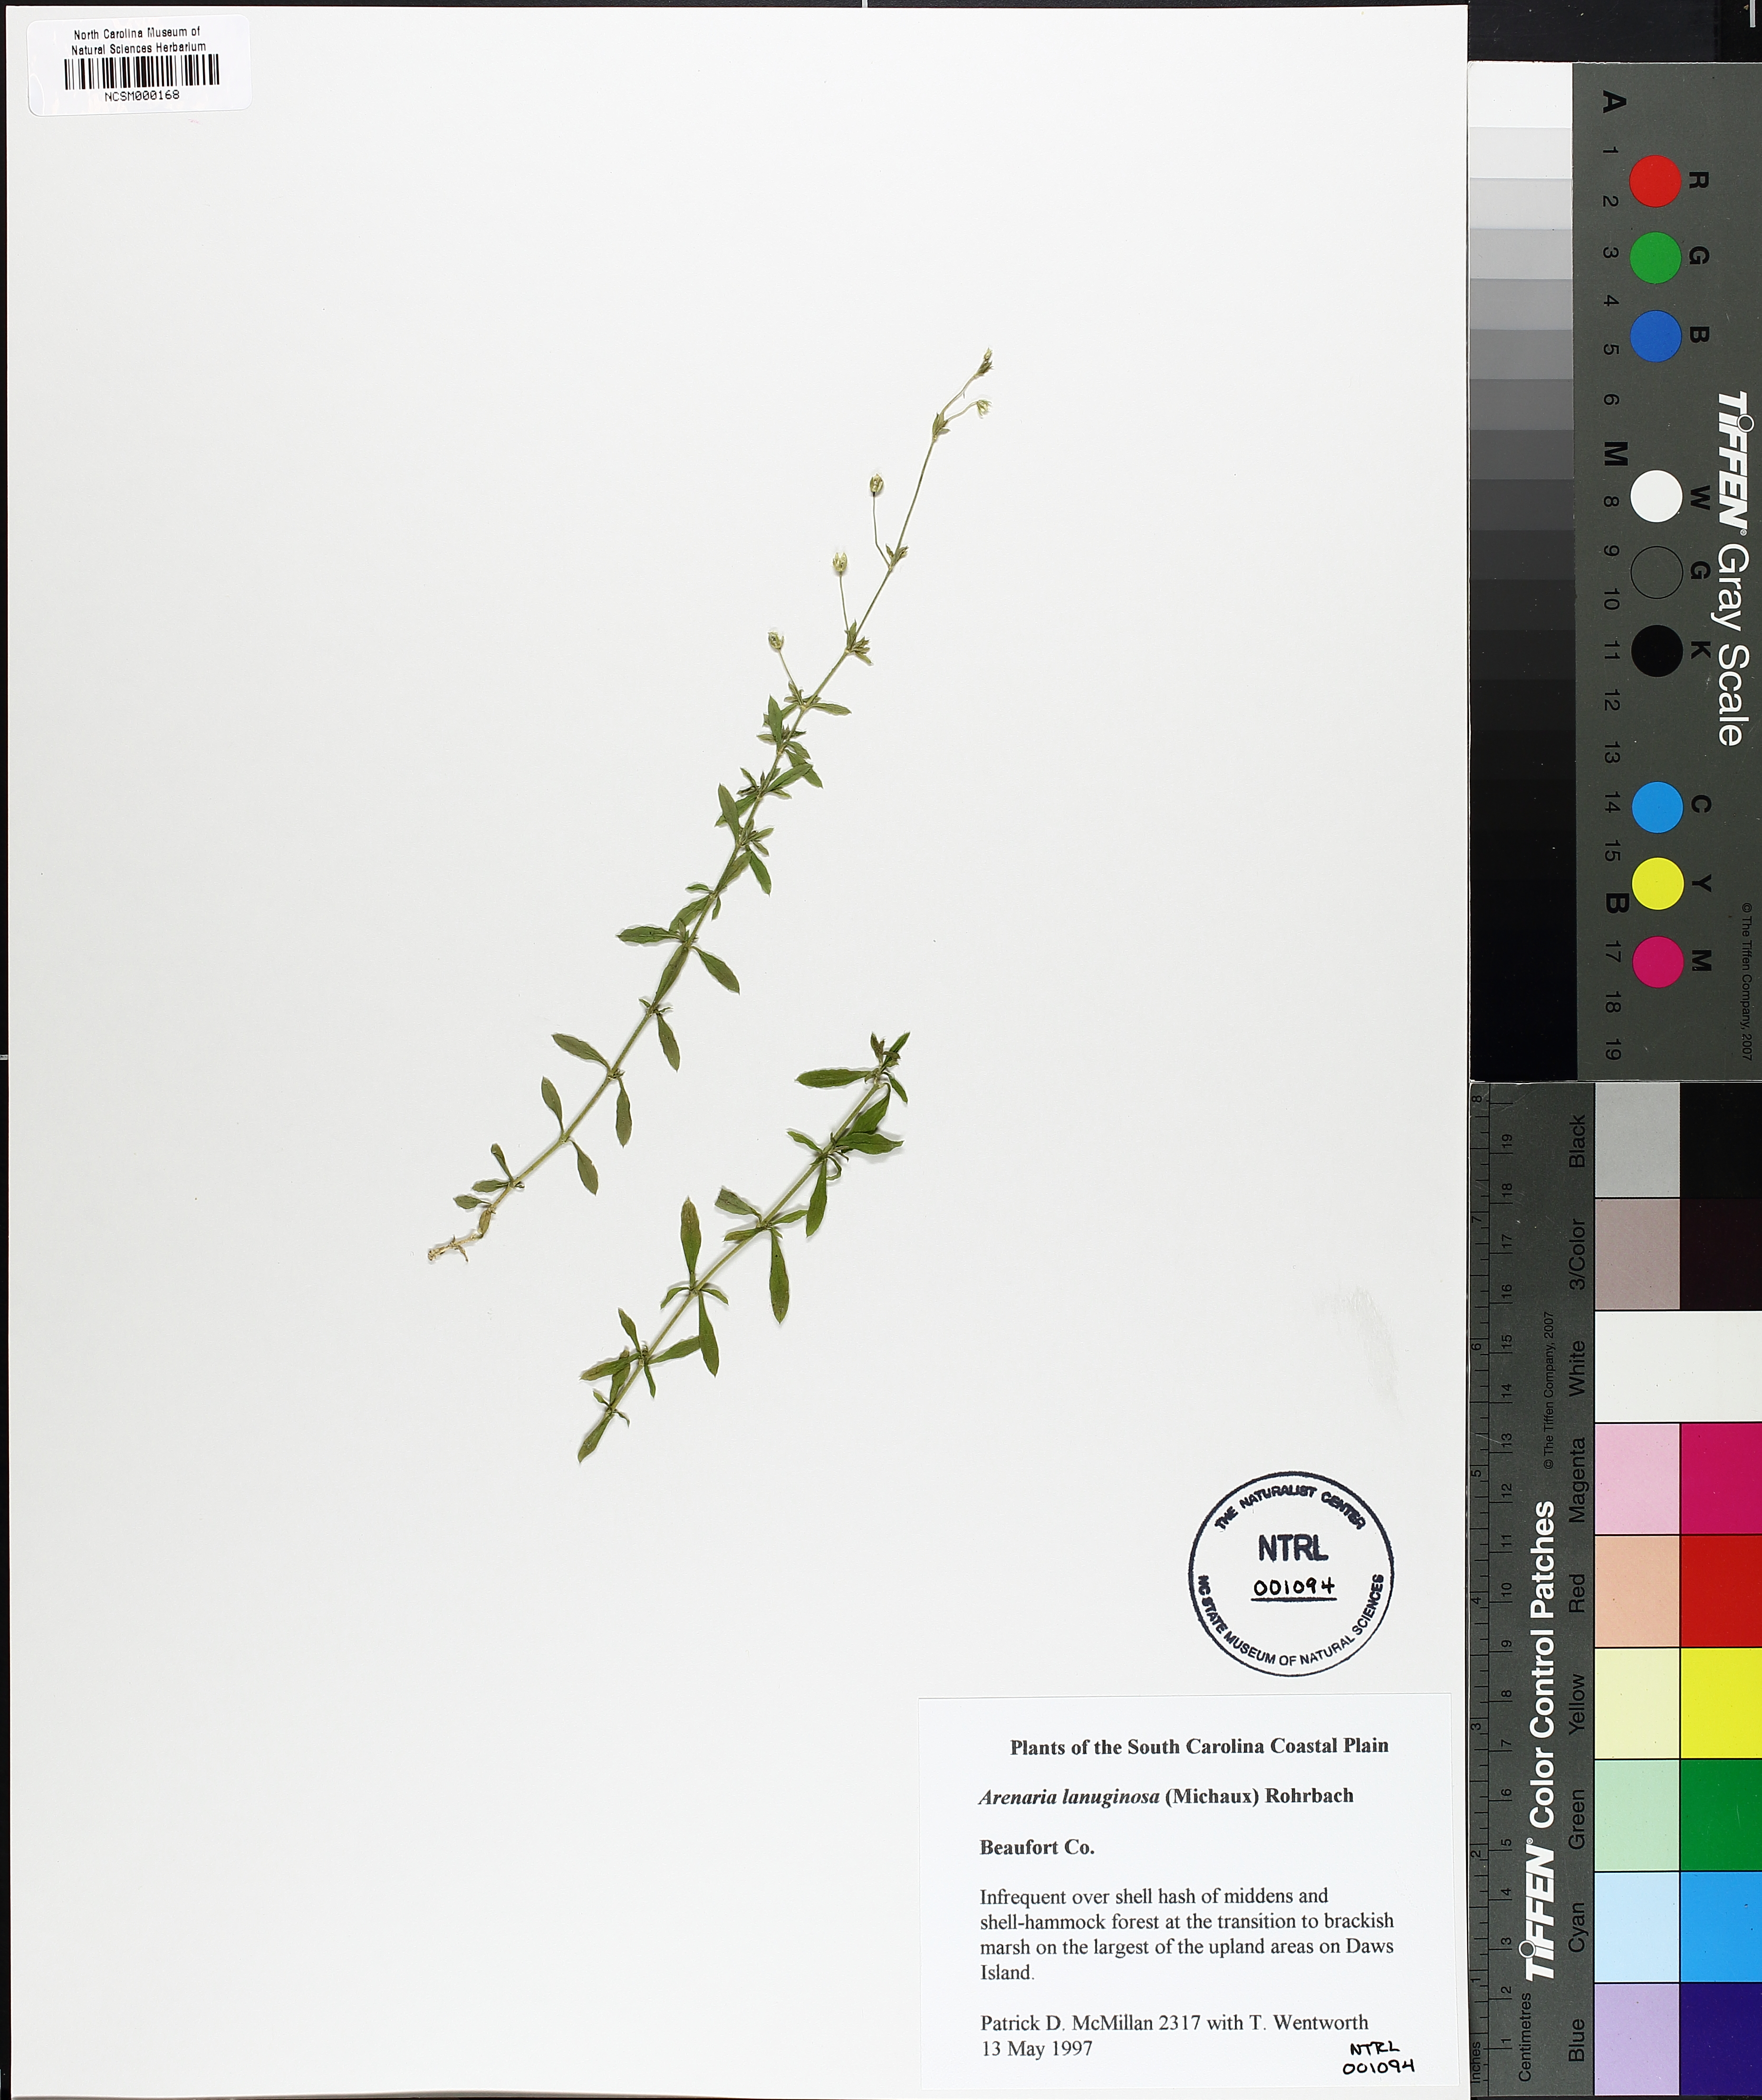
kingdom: Plantae
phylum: Tracheophyta
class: Magnoliopsida
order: Caryophyllales
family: Caryophyllaceae
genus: Arenaria
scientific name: Arenaria lanuginosa
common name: Spread sandwort
